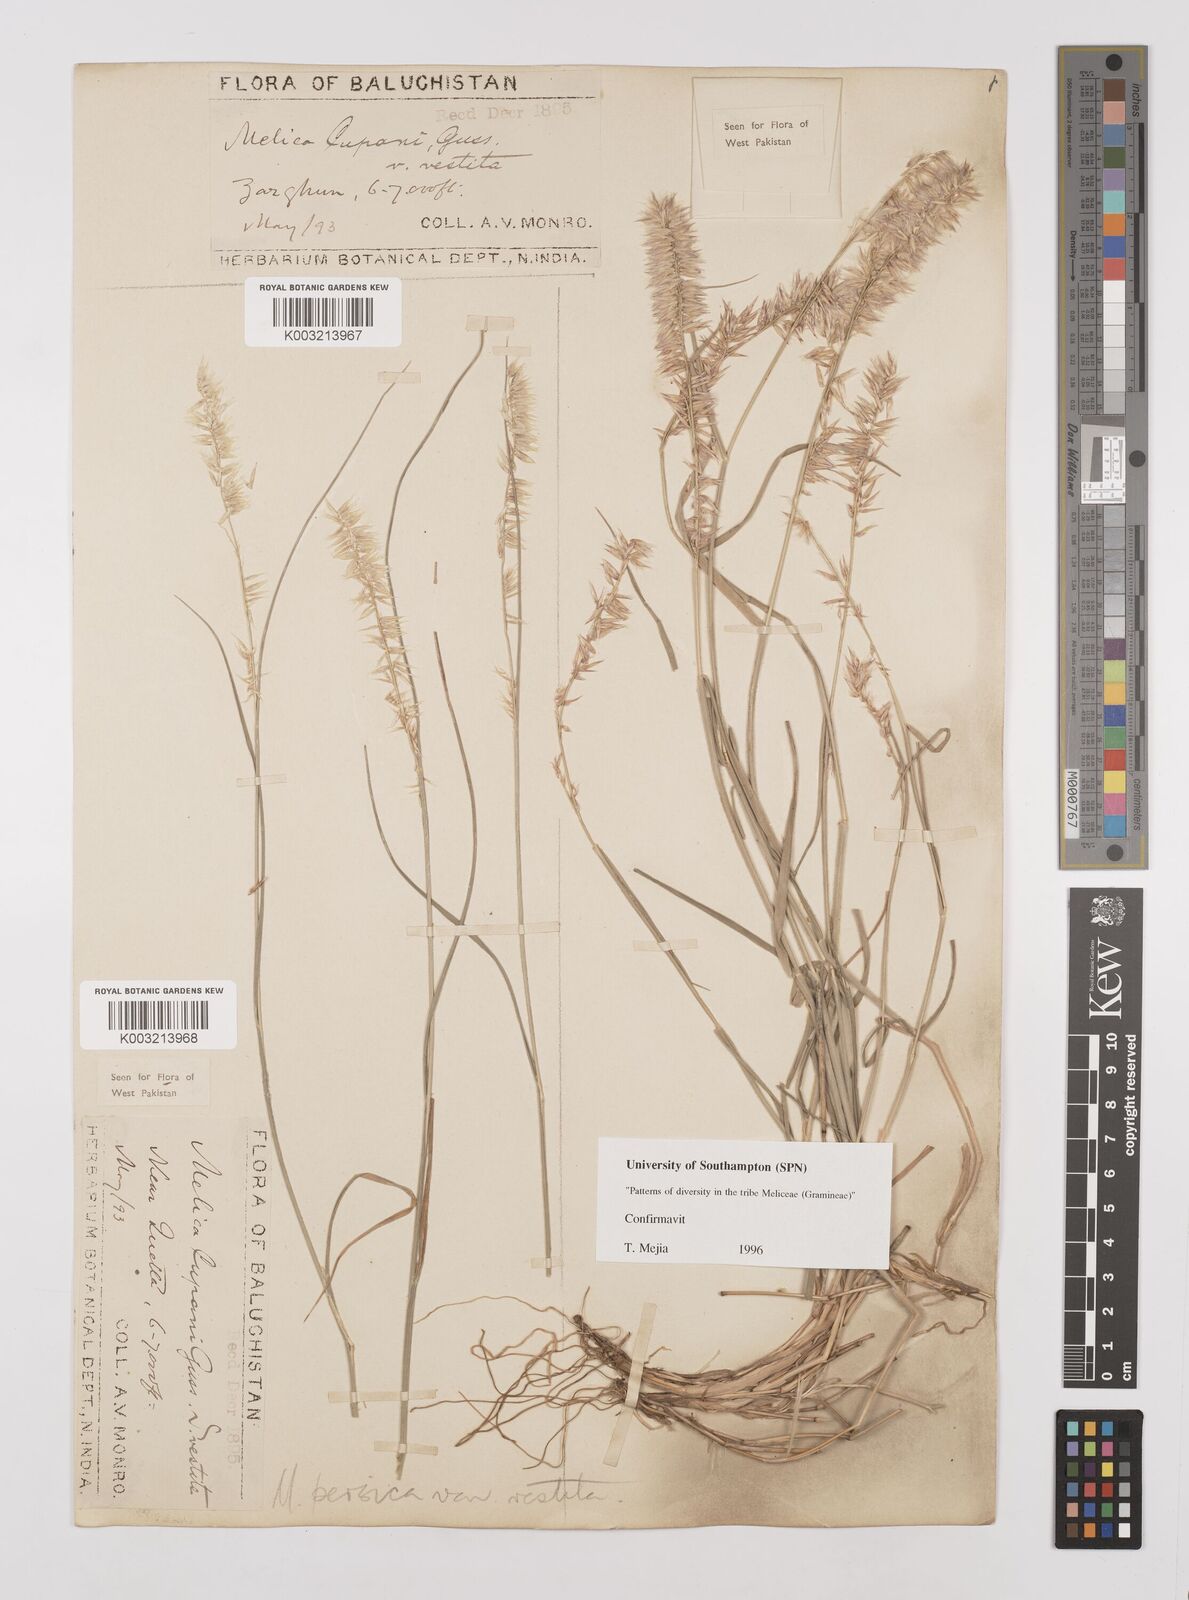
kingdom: Plantae
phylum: Tracheophyta
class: Liliopsida
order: Poales
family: Poaceae
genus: Melica
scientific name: Melica persica
